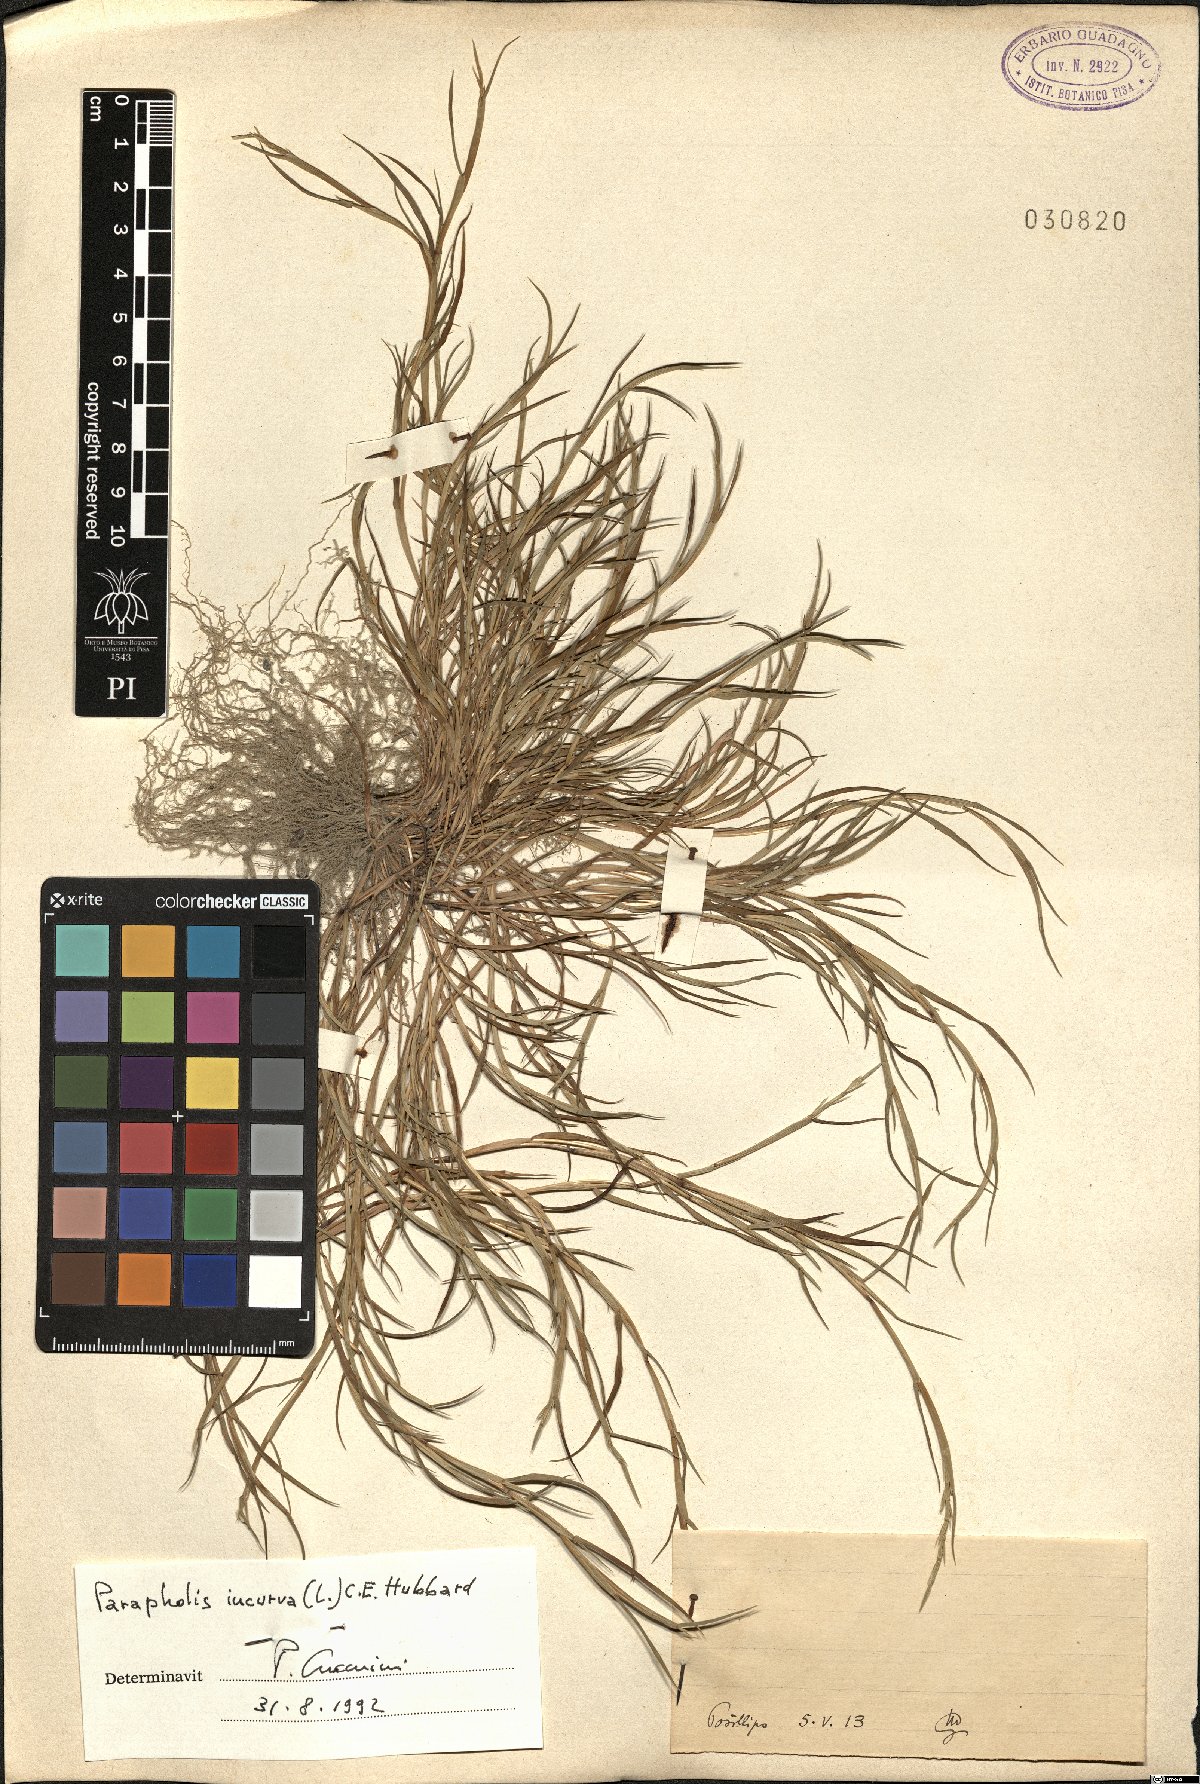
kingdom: Plantae
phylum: Tracheophyta
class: Liliopsida
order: Poales
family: Poaceae
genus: Parapholis
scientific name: Parapholis incurva
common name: Curved sicklegrass
